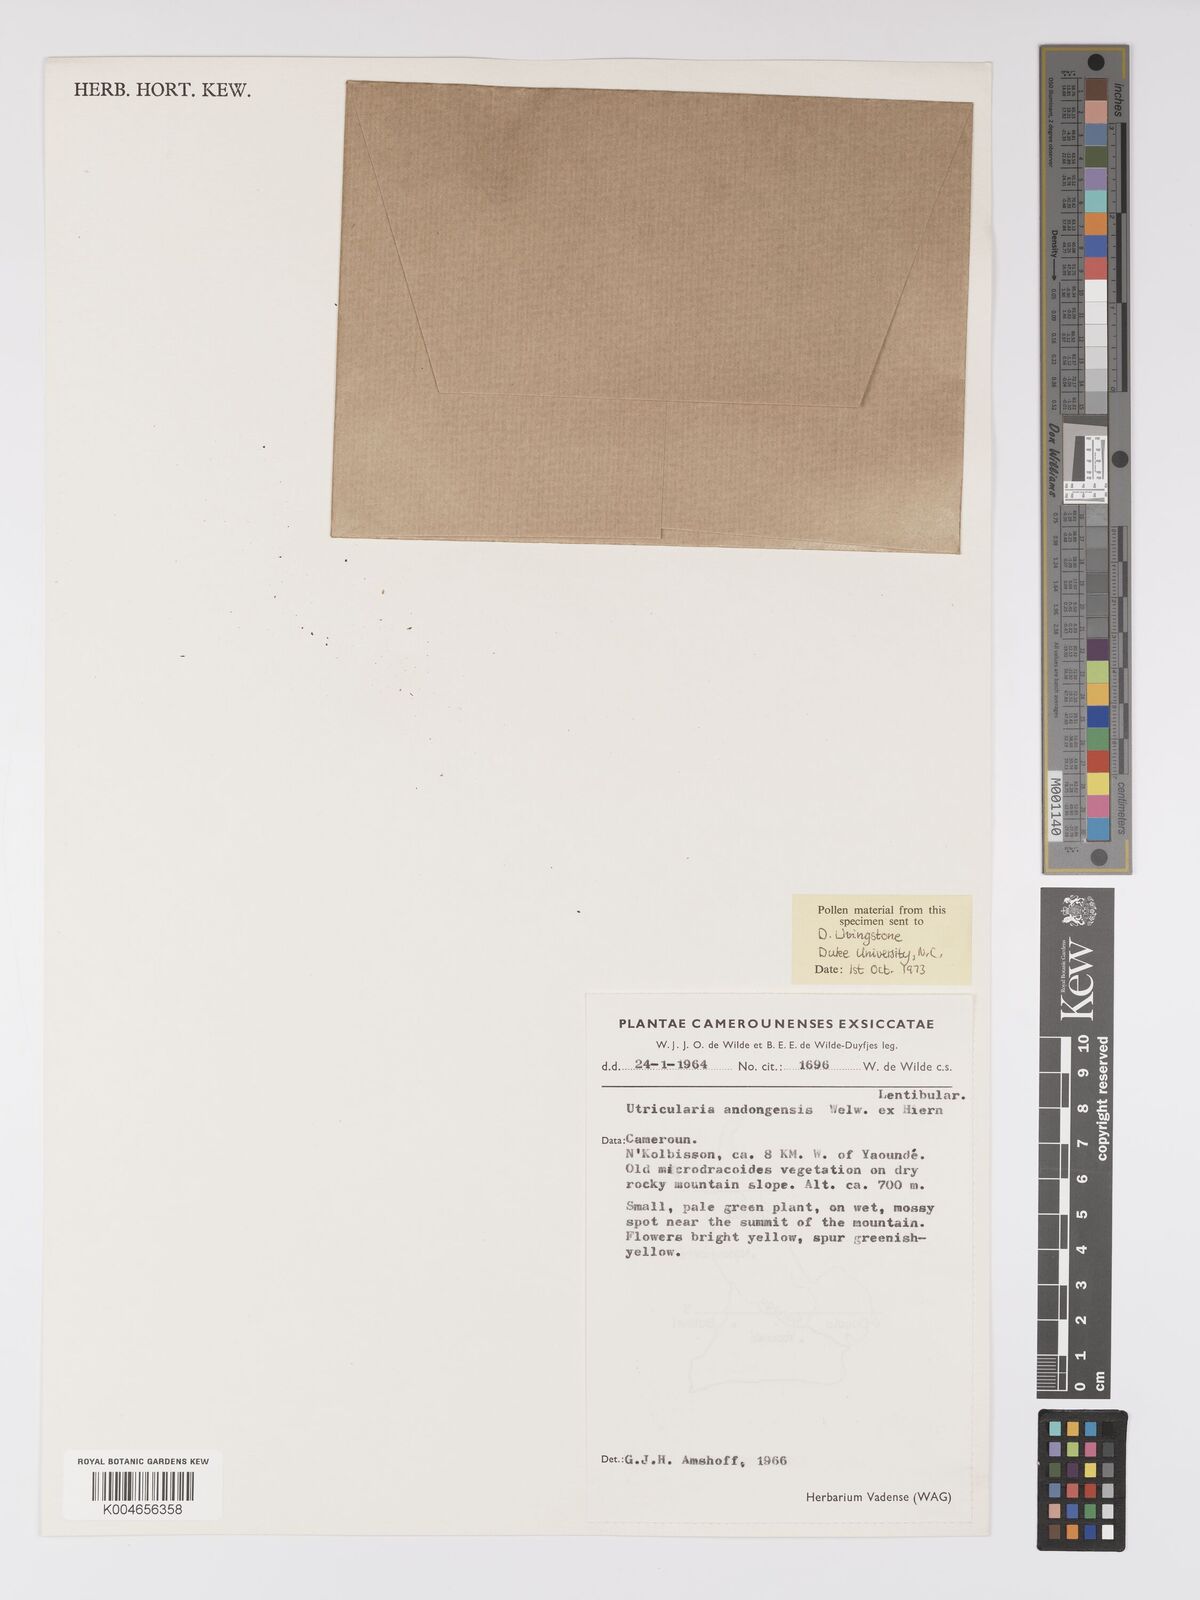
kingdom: Plantae
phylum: Tracheophyta
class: Magnoliopsida
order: Lamiales
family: Lentibulariaceae
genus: Utricularia
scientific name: Utricularia andongensis
